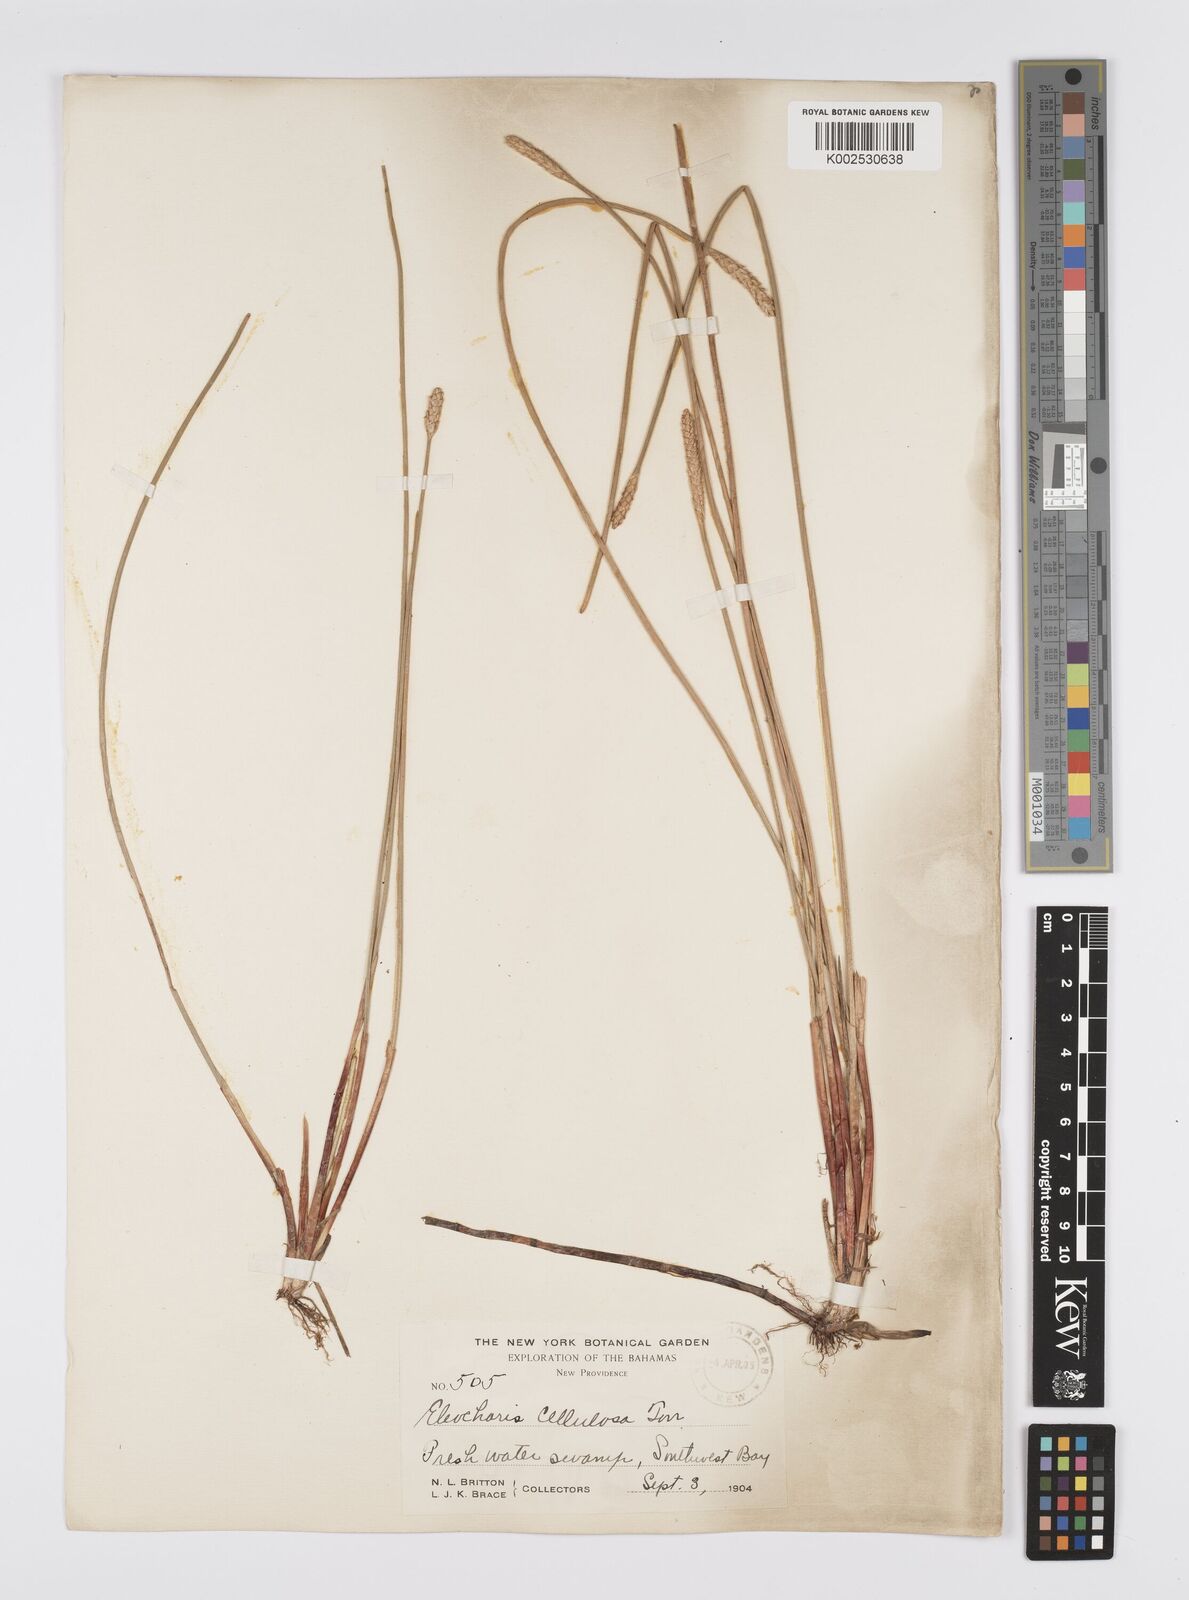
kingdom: Plantae
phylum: Tracheophyta
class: Liliopsida
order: Poales
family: Cyperaceae
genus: Eleocharis
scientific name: Eleocharis erhaiensis
